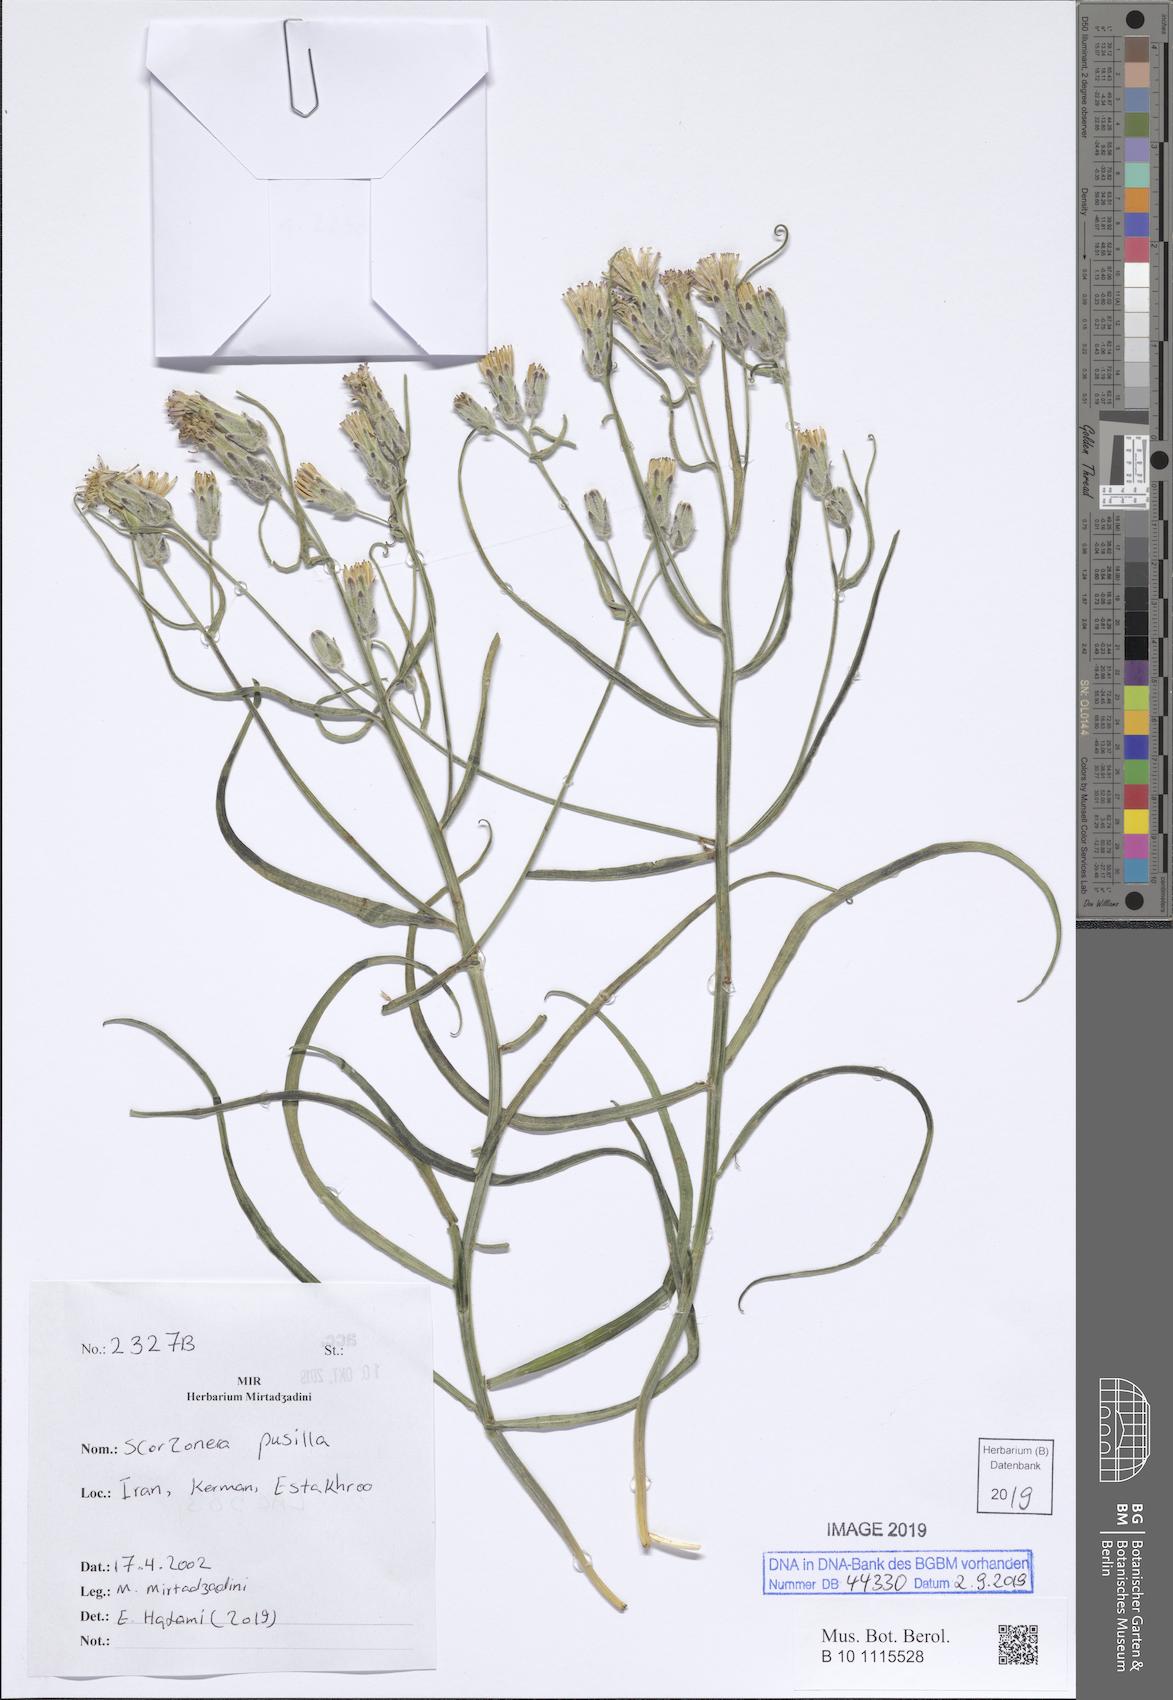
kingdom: Plantae
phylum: Tracheophyta
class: Magnoliopsida
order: Asterales
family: Asteraceae
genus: Takhtajaniantha
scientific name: Takhtajaniantha pusilla
